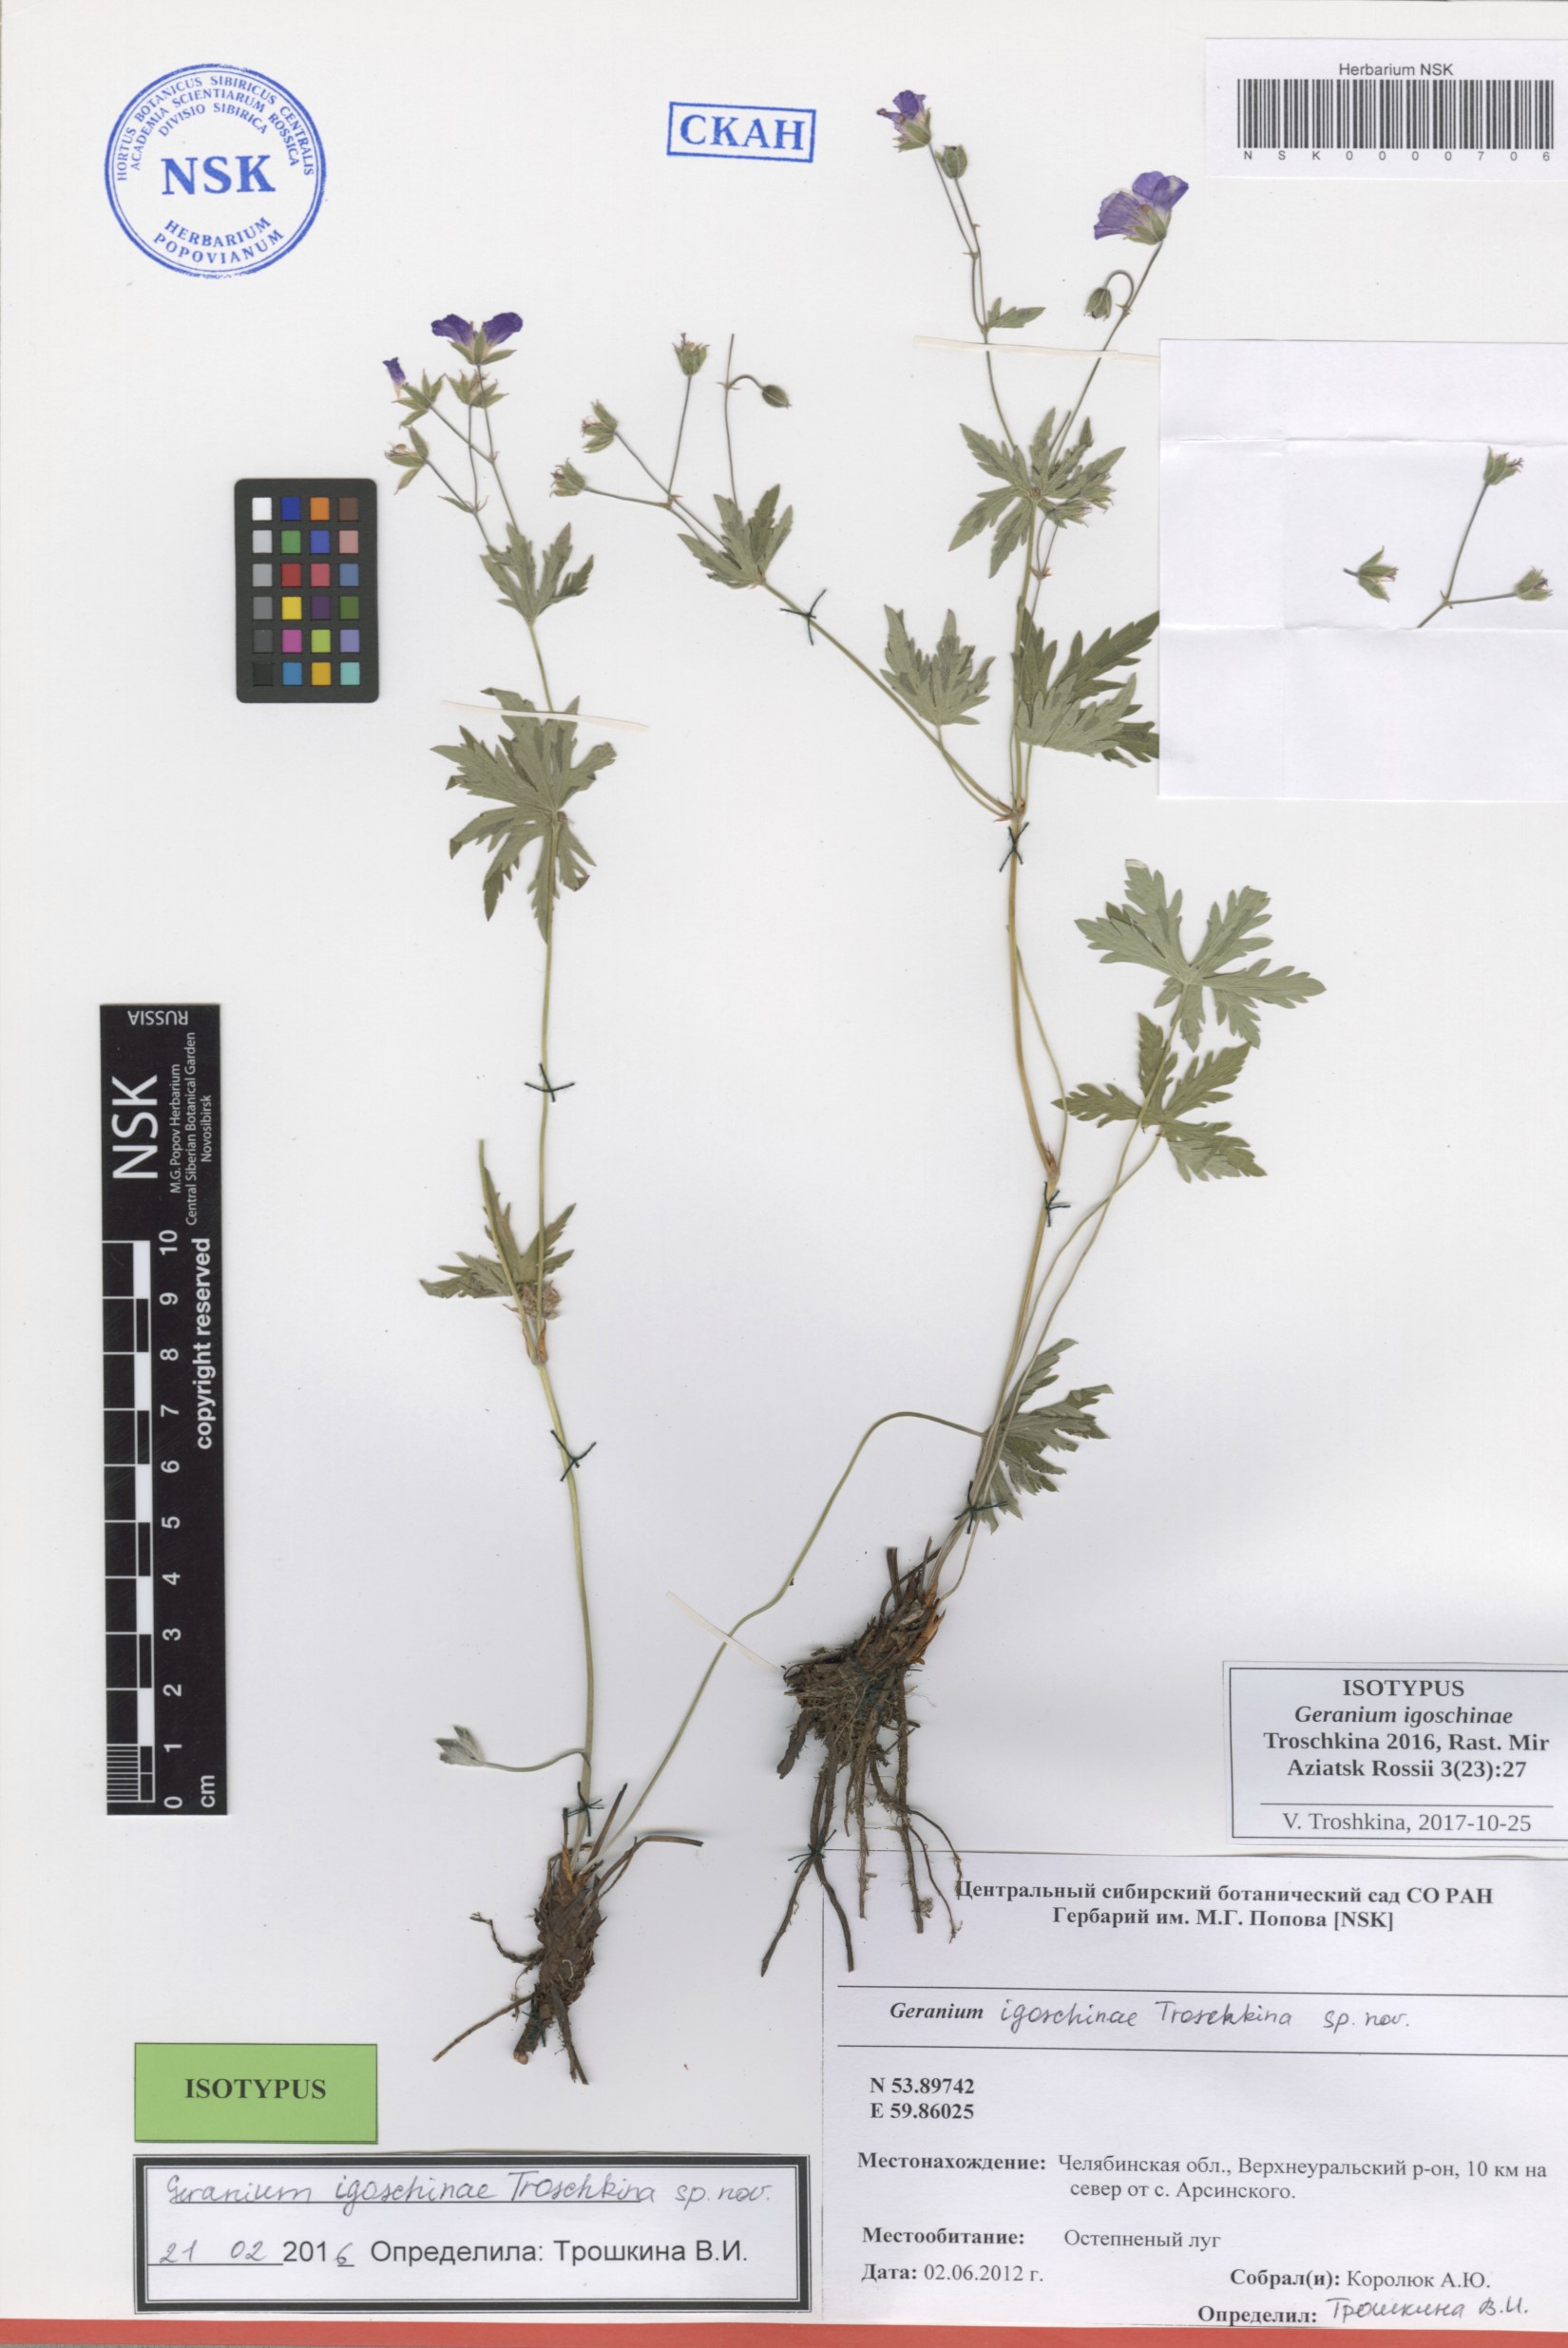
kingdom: Plantae
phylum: Tracheophyta
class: Magnoliopsida
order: Geraniales
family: Geraniaceae
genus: Geranium
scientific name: Geranium igoschinae
